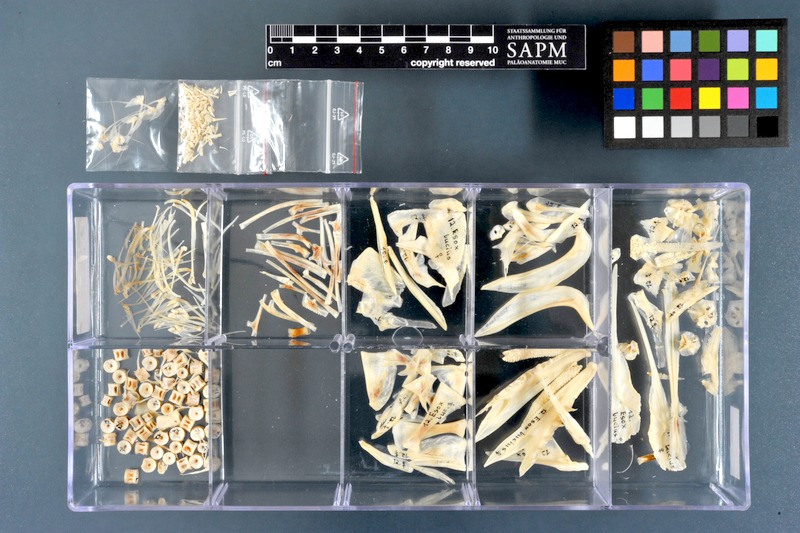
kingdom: Animalia
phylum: Chordata
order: Esociformes
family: Esocidae
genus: Esox
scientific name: Esox lucius
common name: Northern pike
